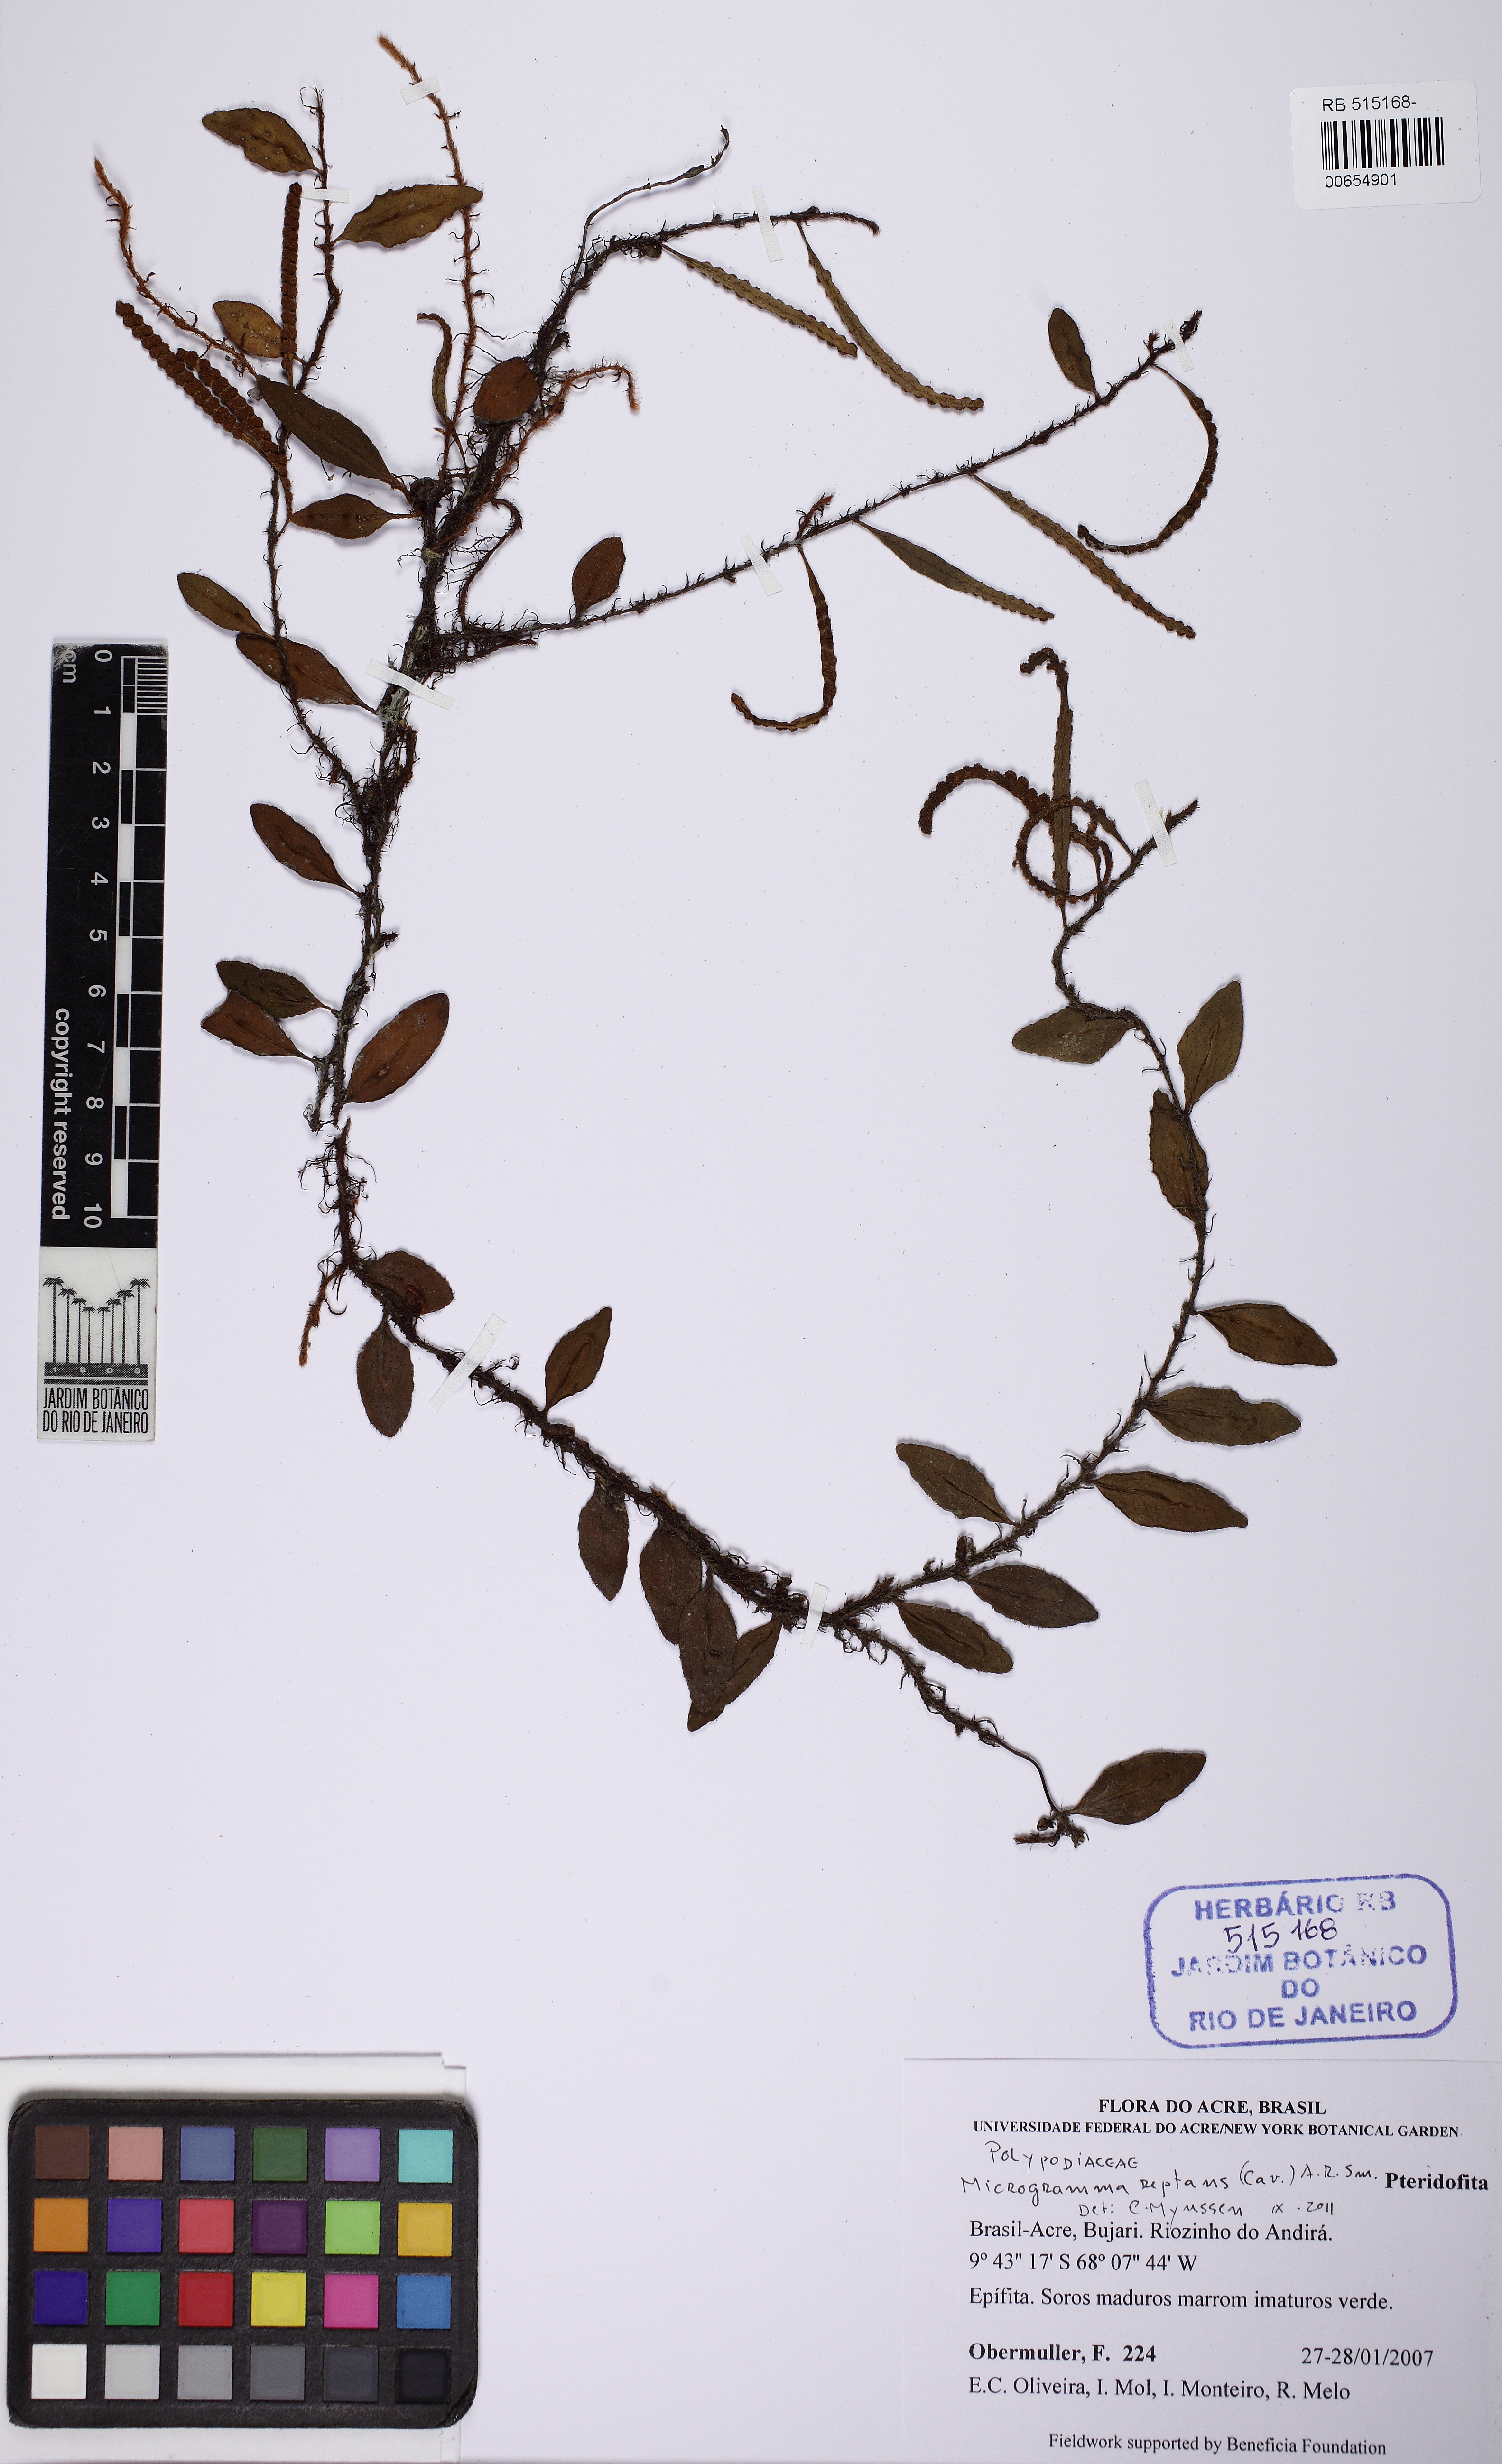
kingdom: Plantae
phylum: Tracheophyta
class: Polypodiopsida
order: Polypodiales
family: Polypodiaceae
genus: Microgramma
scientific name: Microgramma reptans
